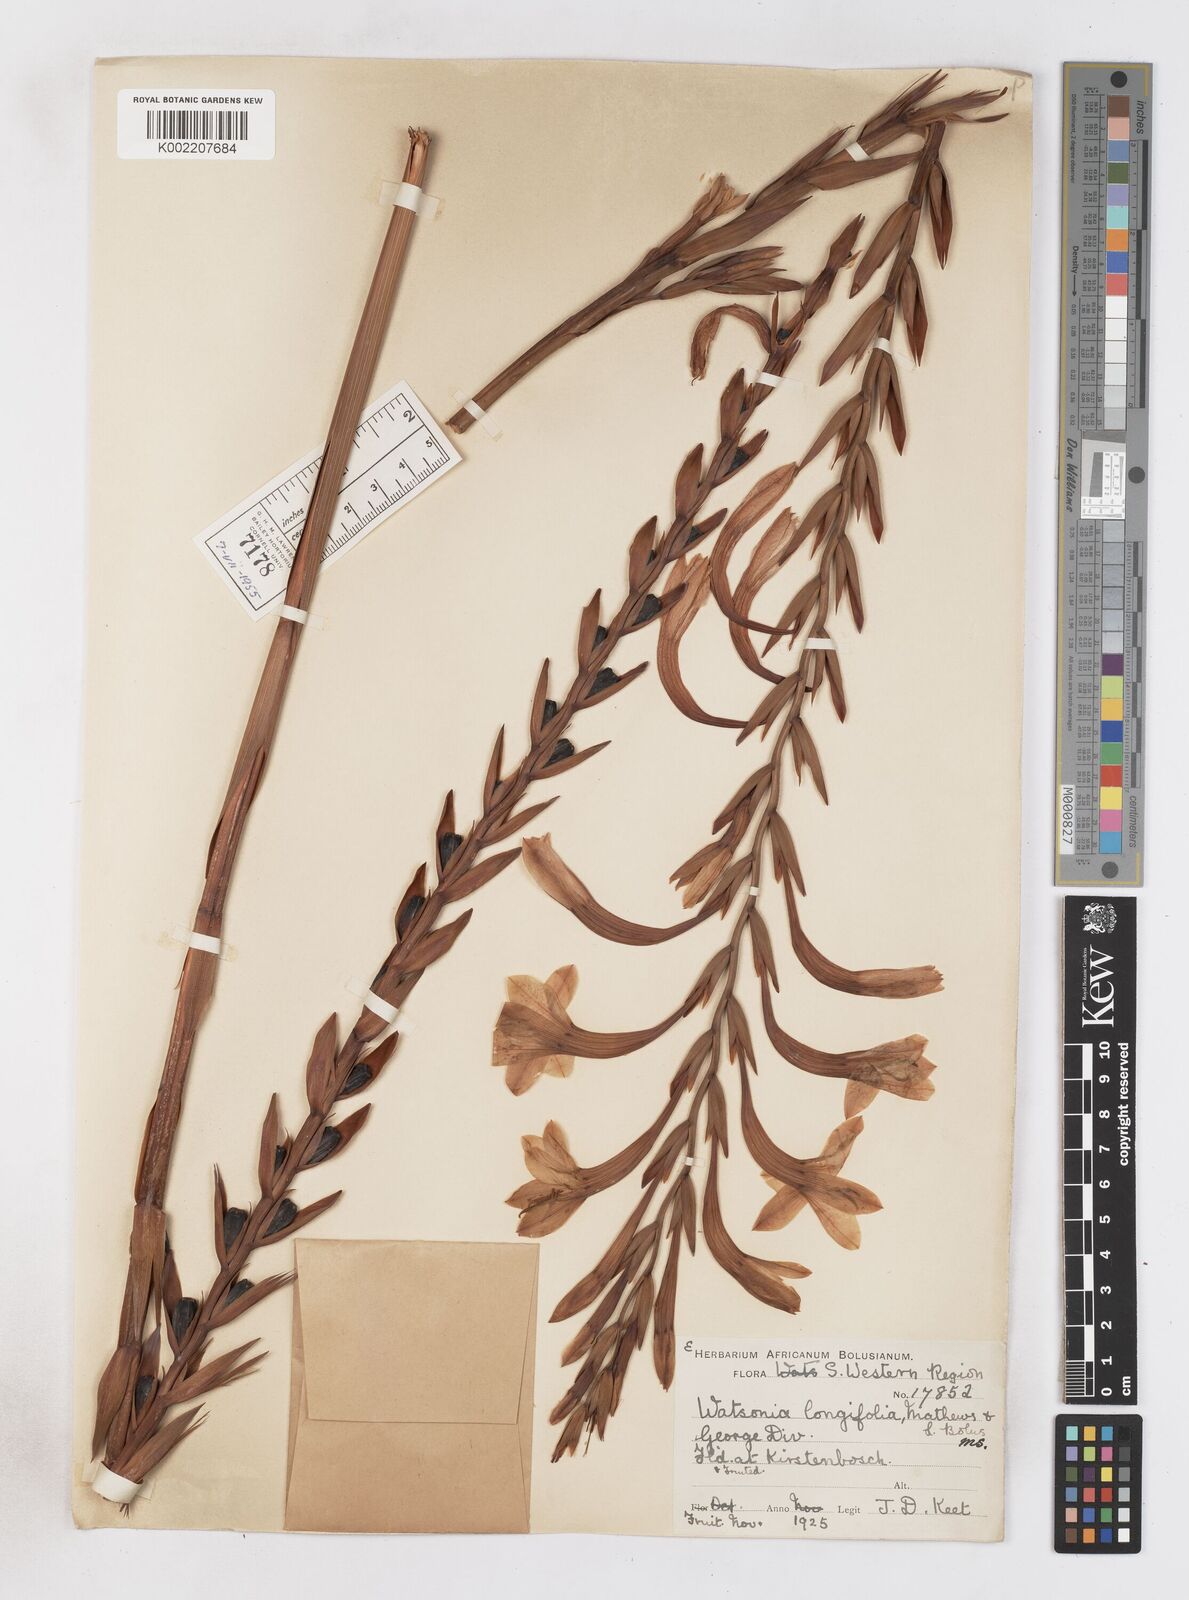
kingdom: Plantae
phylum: Tracheophyta
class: Liliopsida
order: Asparagales
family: Iridaceae
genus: Watsonia
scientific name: Watsonia longifolia
